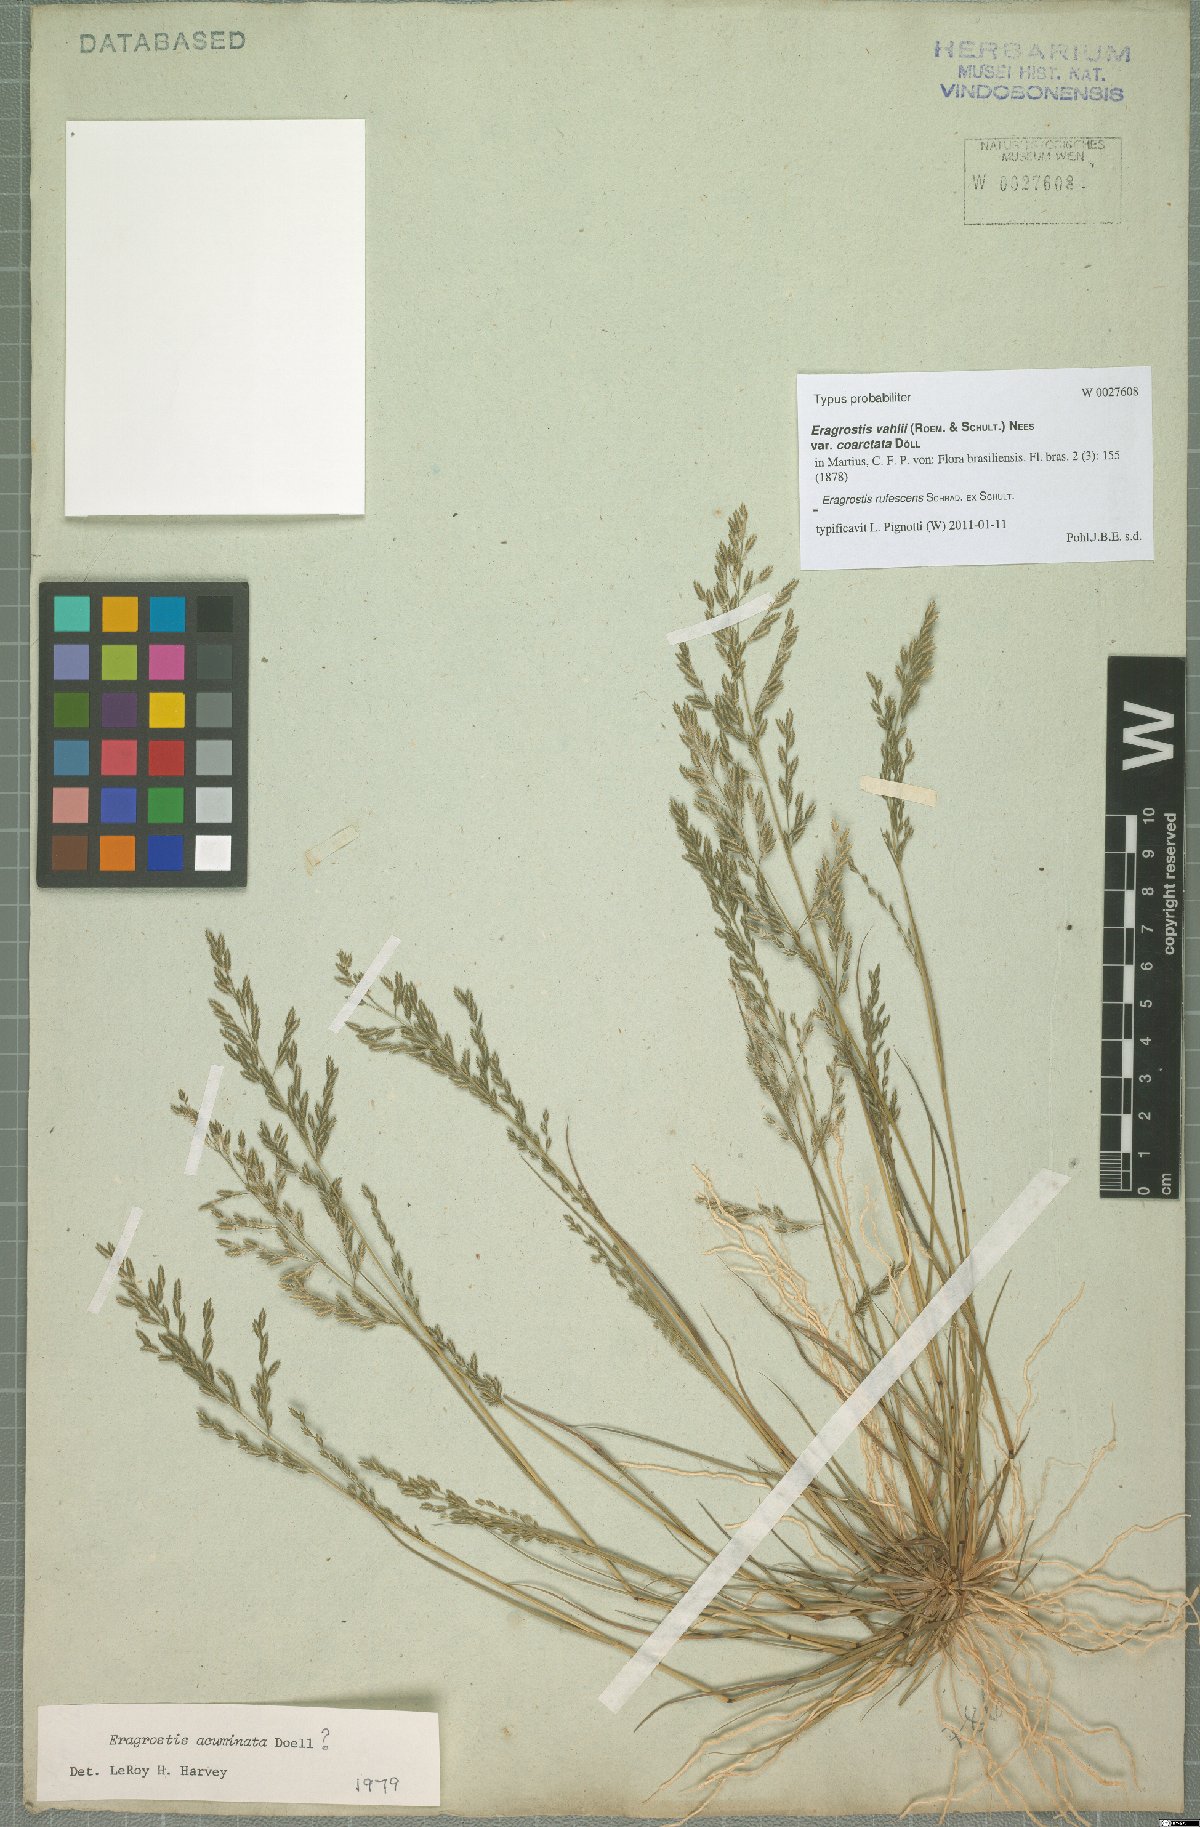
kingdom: Plantae
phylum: Tracheophyta
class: Liliopsida
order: Poales
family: Poaceae
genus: Eragrostis
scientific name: Eragrostis rufescens
